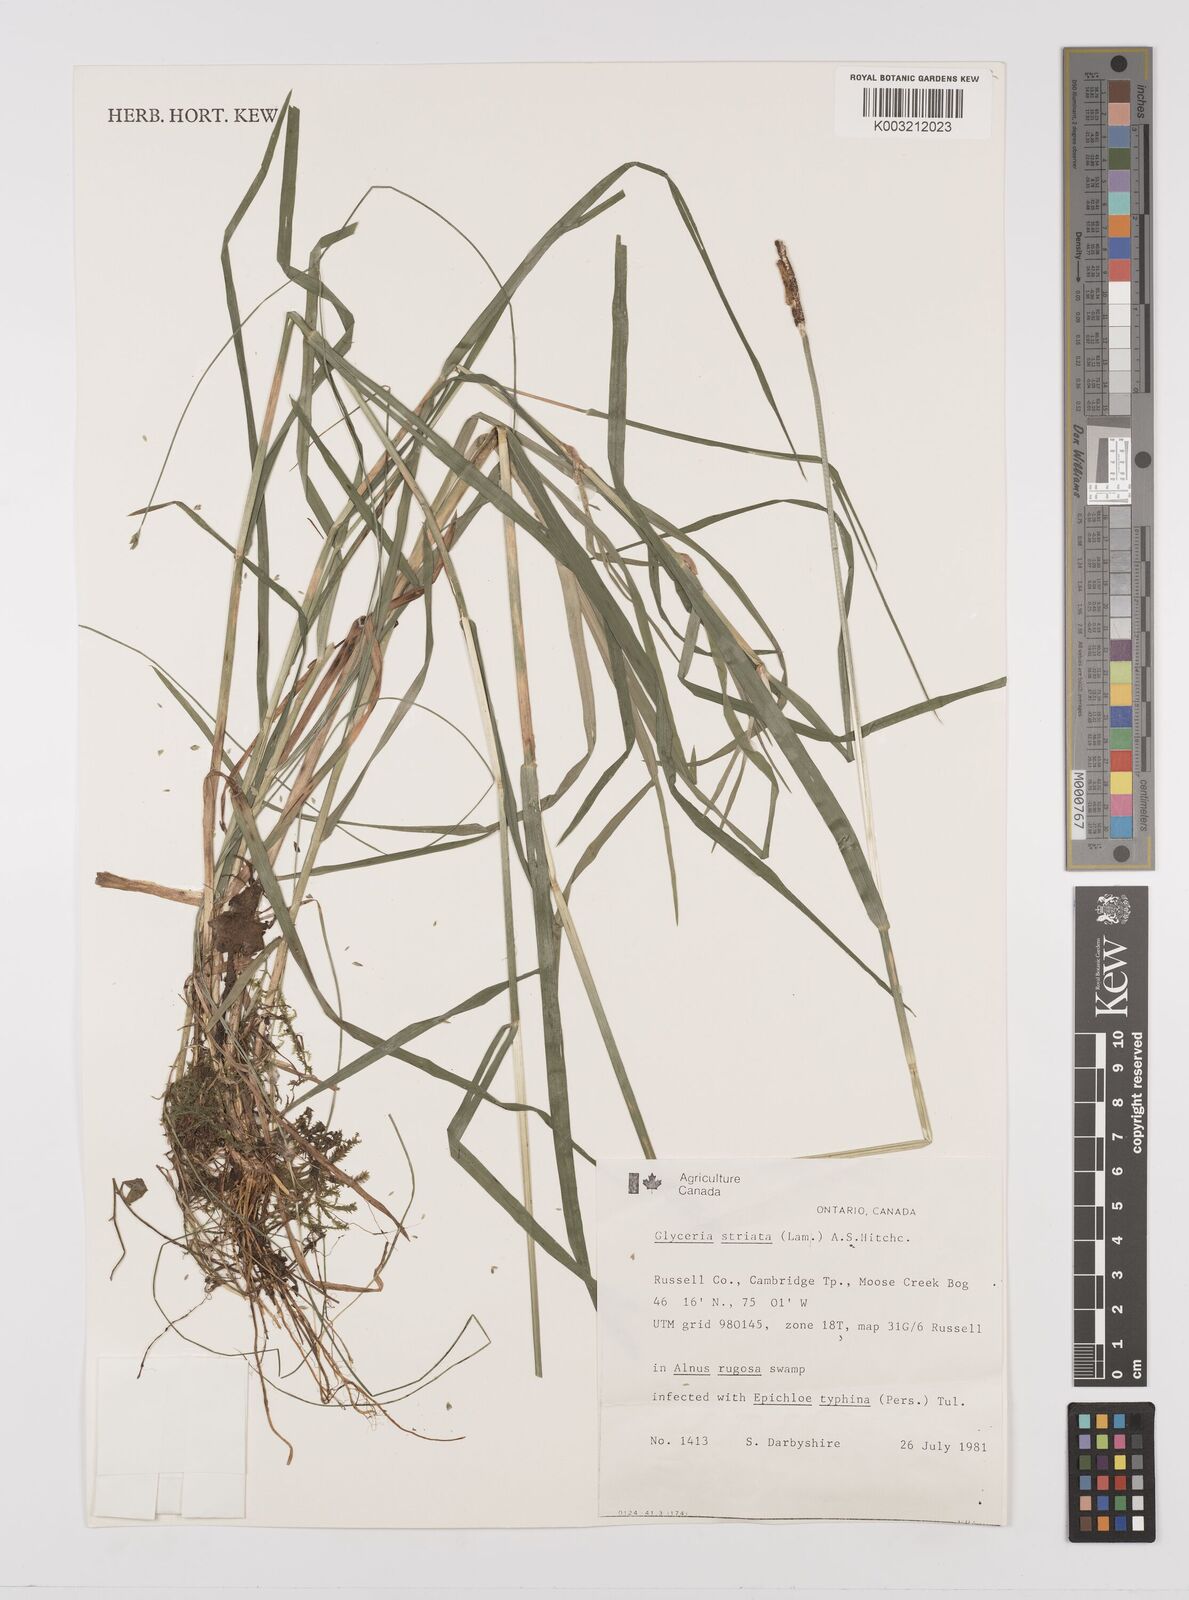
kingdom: Plantae
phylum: Tracheophyta
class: Liliopsida
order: Poales
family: Poaceae
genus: Glyceria
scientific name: Glyceria striata
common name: Fowl manna grass
